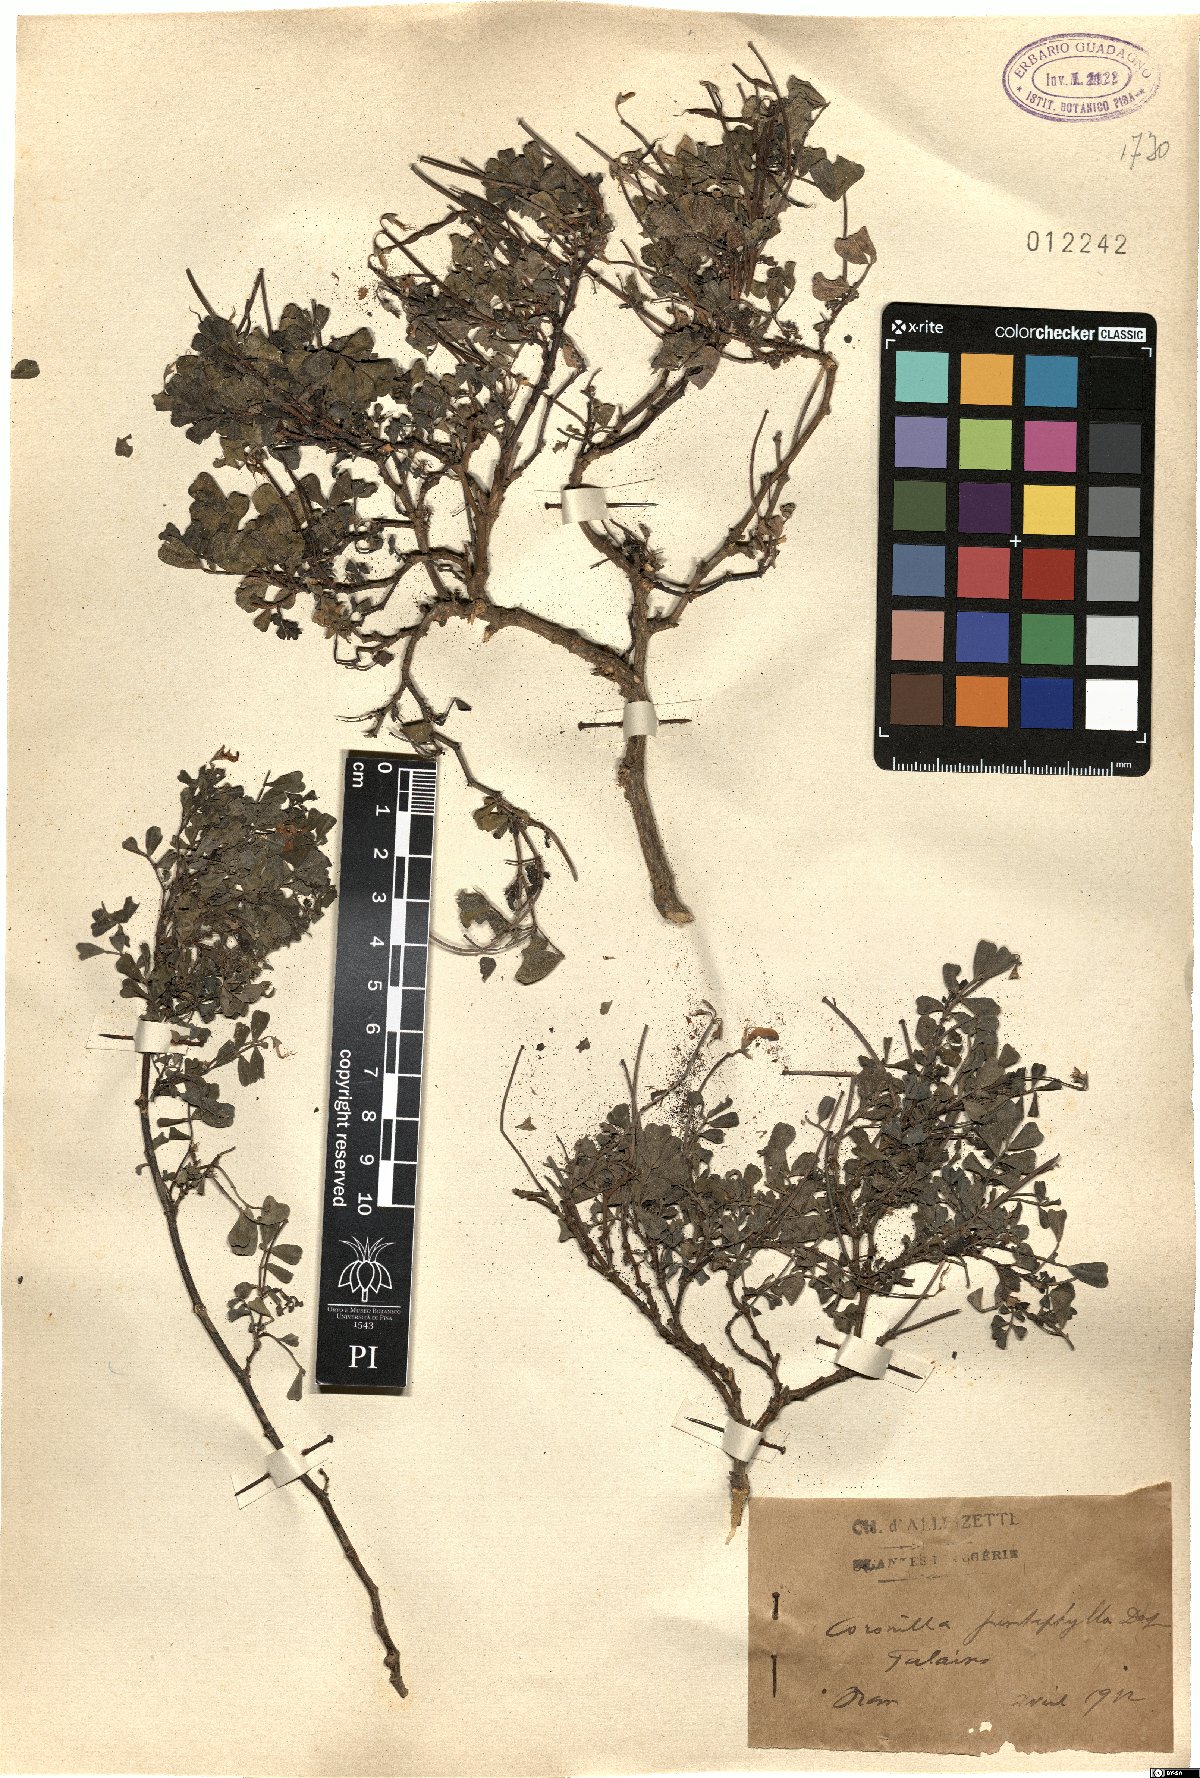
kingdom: Plantae
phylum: Tracheophyta
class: Magnoliopsida
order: Fabales
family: Fabaceae
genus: Coronilla
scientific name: Coronilla valentina
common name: Shrubby scorpion-vetch
